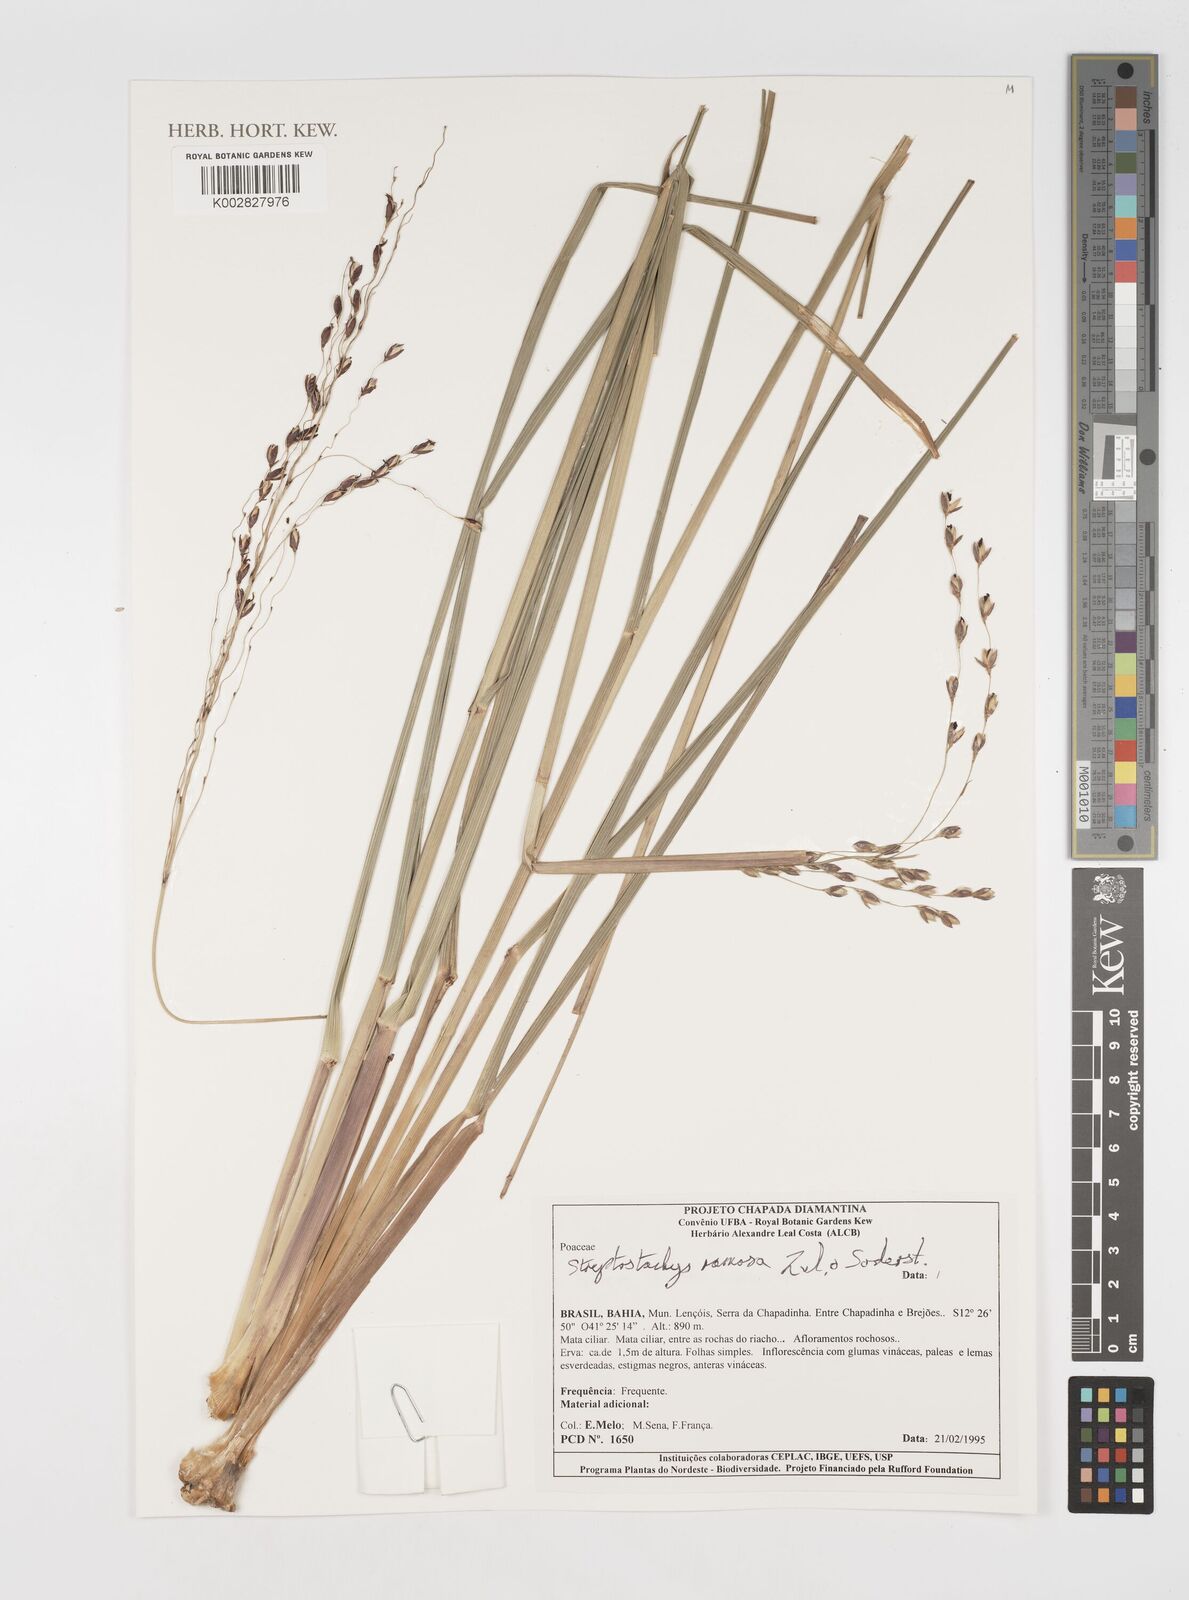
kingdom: Plantae
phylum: Tracheophyta
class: Liliopsida
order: Poales
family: Poaceae
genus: Oncorachis
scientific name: Oncorachis ramosa
